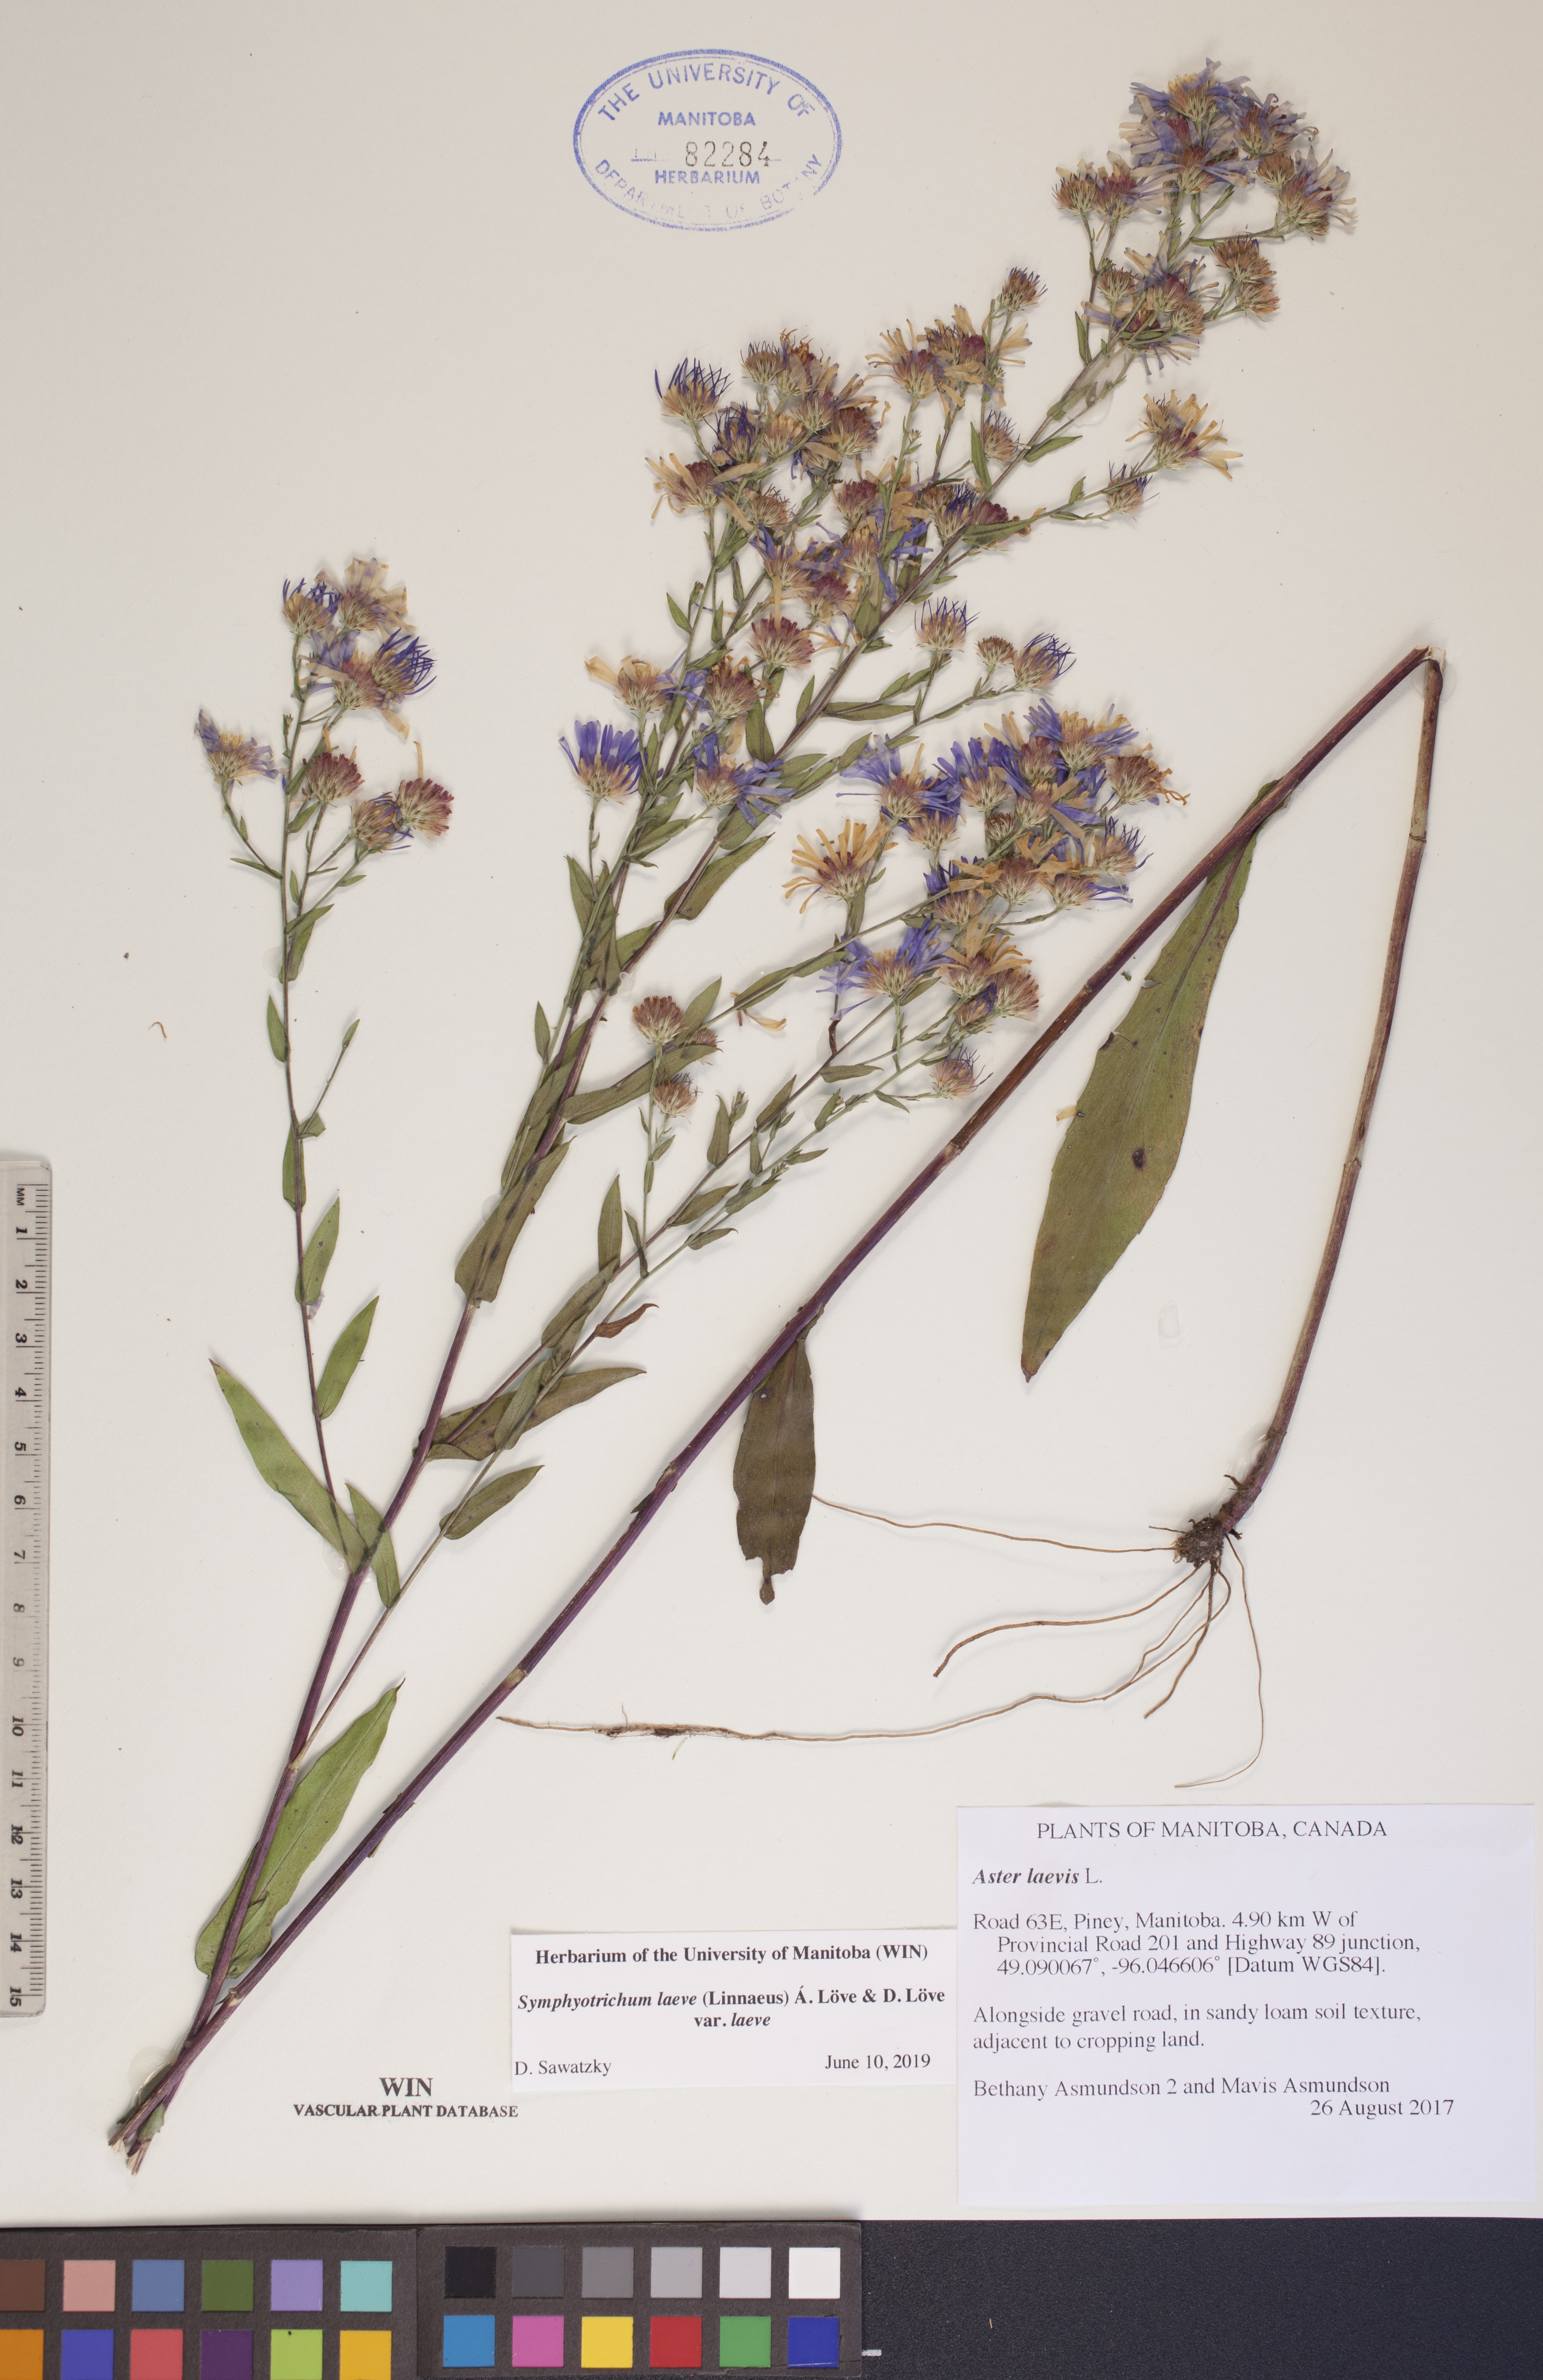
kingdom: Plantae
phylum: Tracheophyta
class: Magnoliopsida
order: Asterales
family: Asteraceae
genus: Symphyotrichum
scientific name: Symphyotrichum laeve
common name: Glaucous aster
